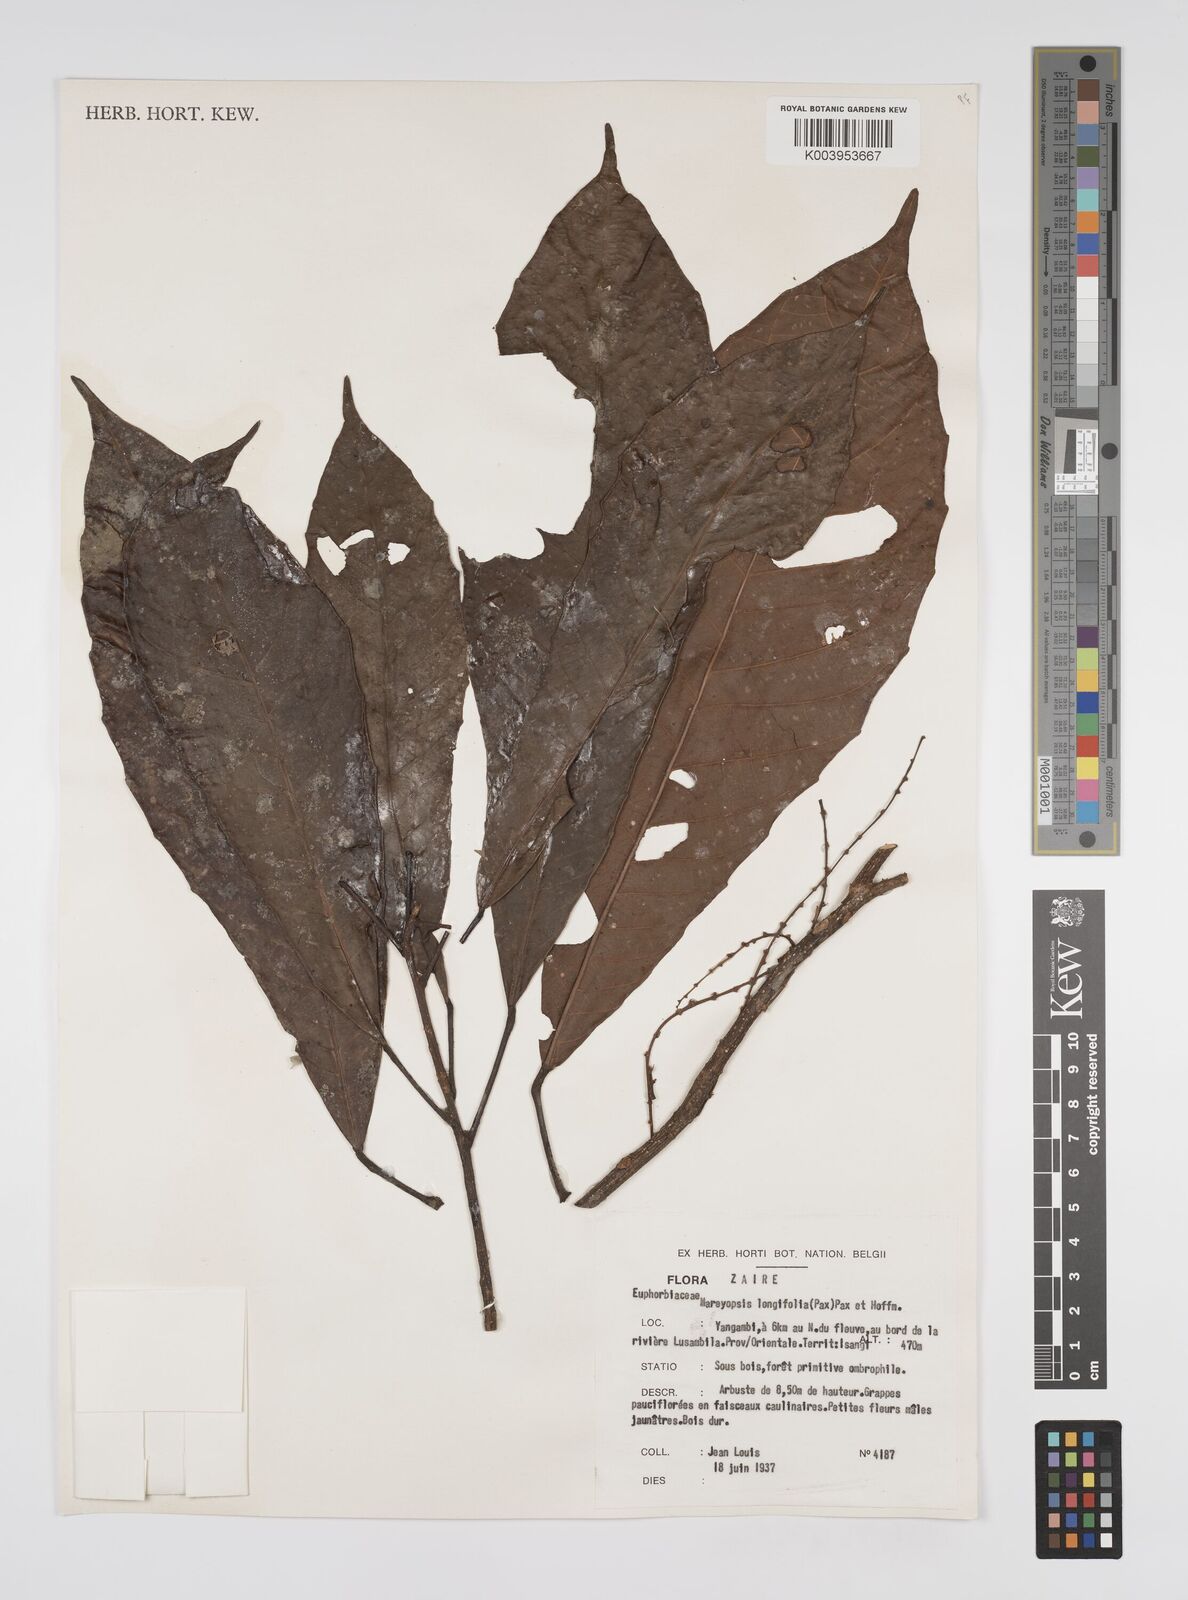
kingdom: Plantae
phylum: Tracheophyta
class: Magnoliopsida
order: Malpighiales
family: Euphorbiaceae
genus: Mareyopsis
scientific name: Mareyopsis longifolia
